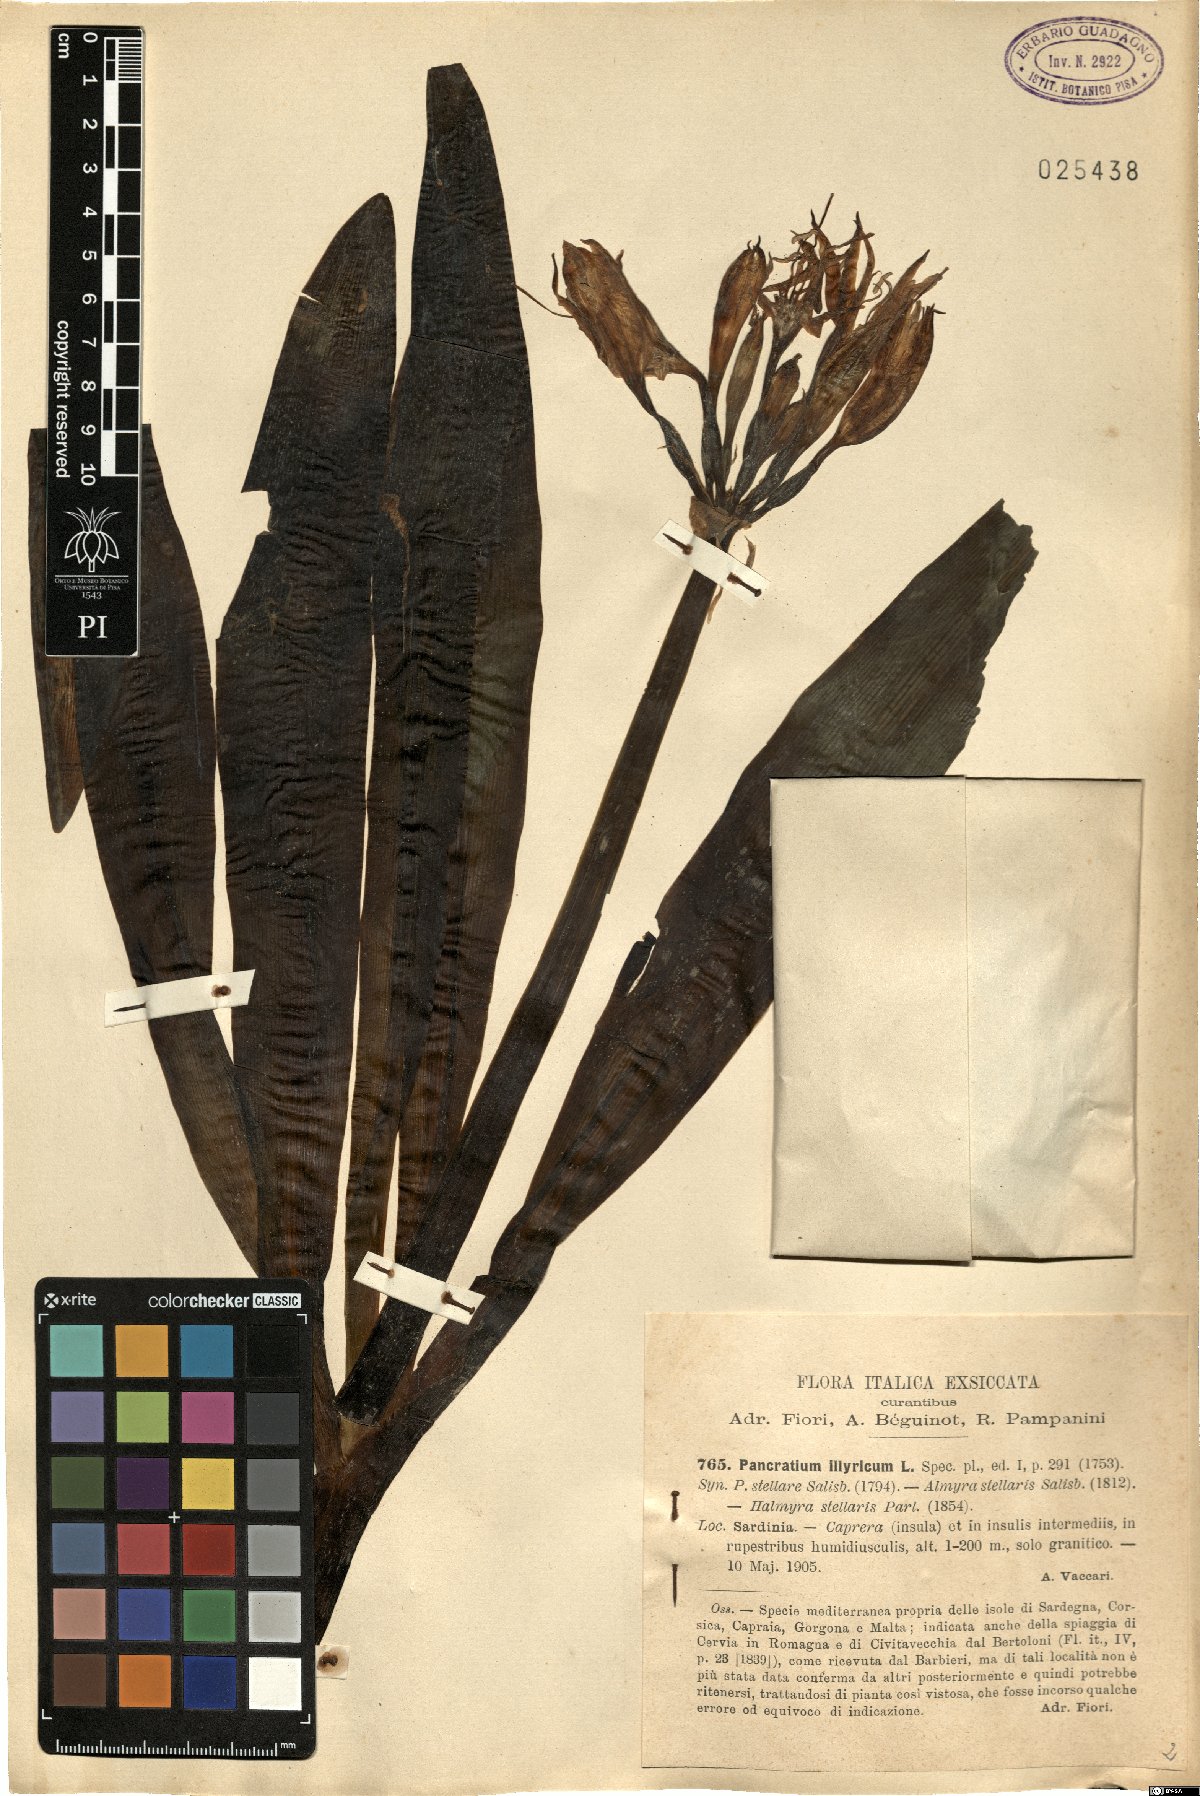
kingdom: Plantae
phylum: Tracheophyta
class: Liliopsida
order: Asparagales
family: Amaryllidaceae
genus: Pancratium
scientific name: Pancratium illyricum
